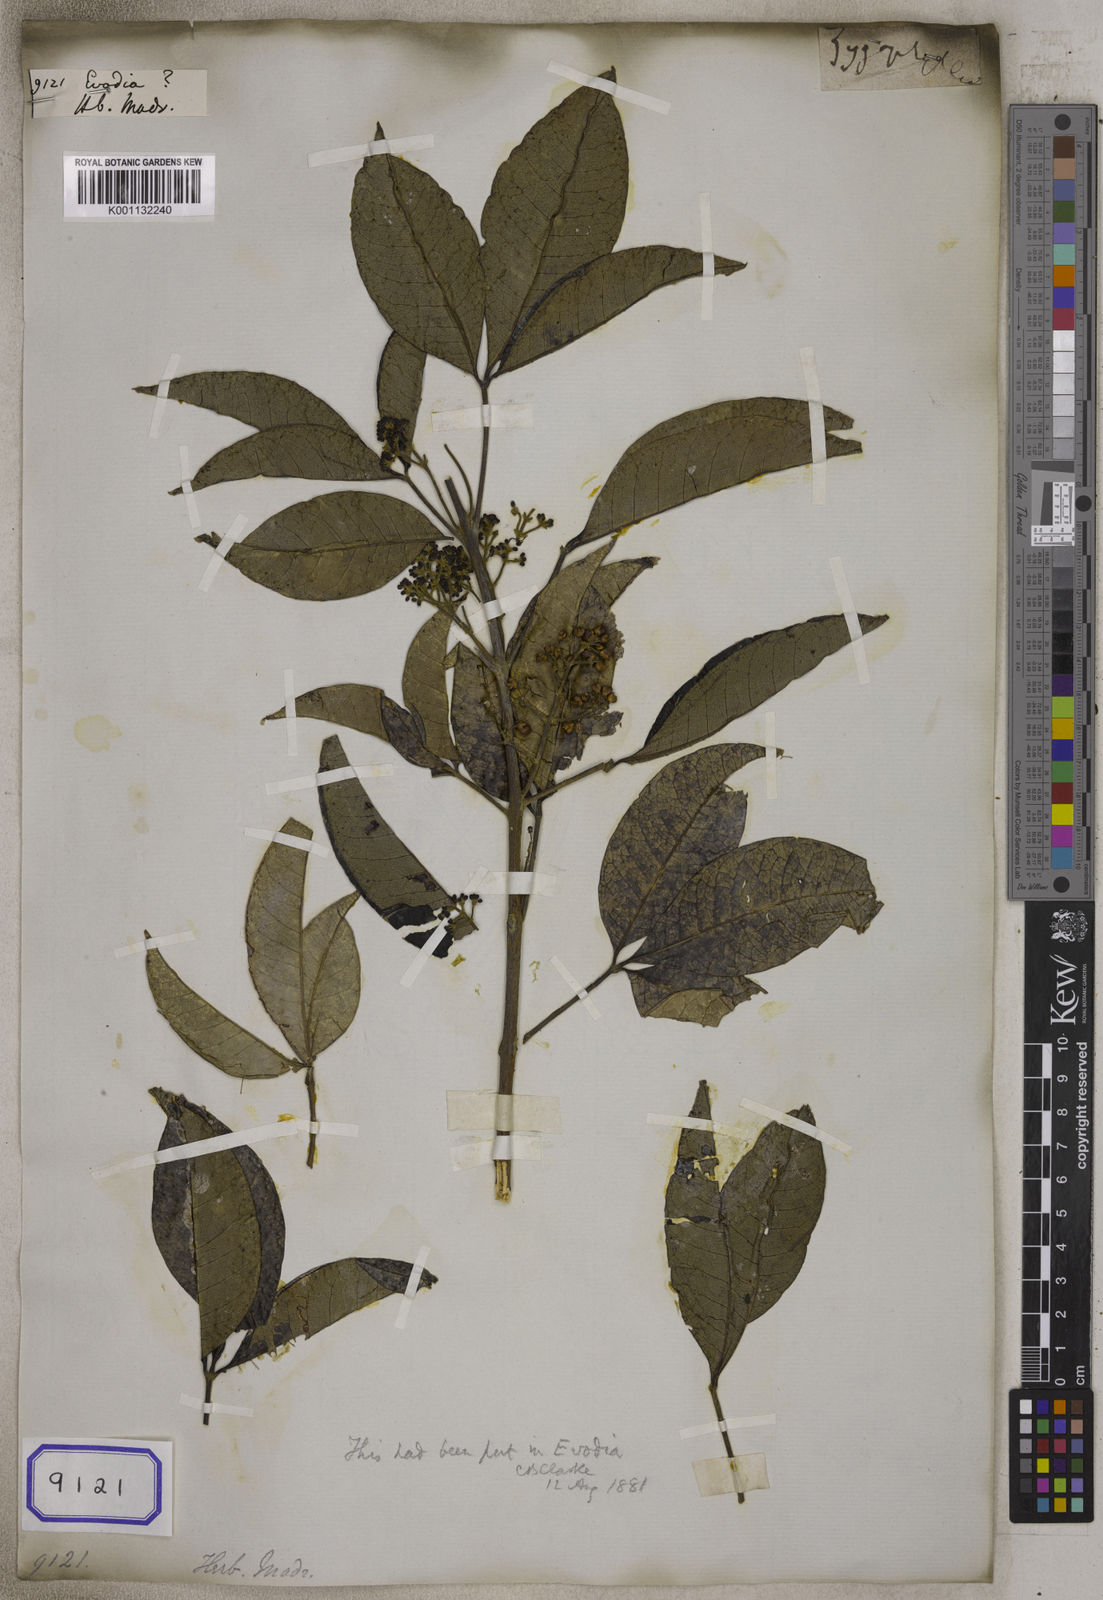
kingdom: Plantae
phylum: Tracheophyta
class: Magnoliopsida
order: Sapindales
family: Rutaceae
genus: Euodia
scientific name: Euodia
